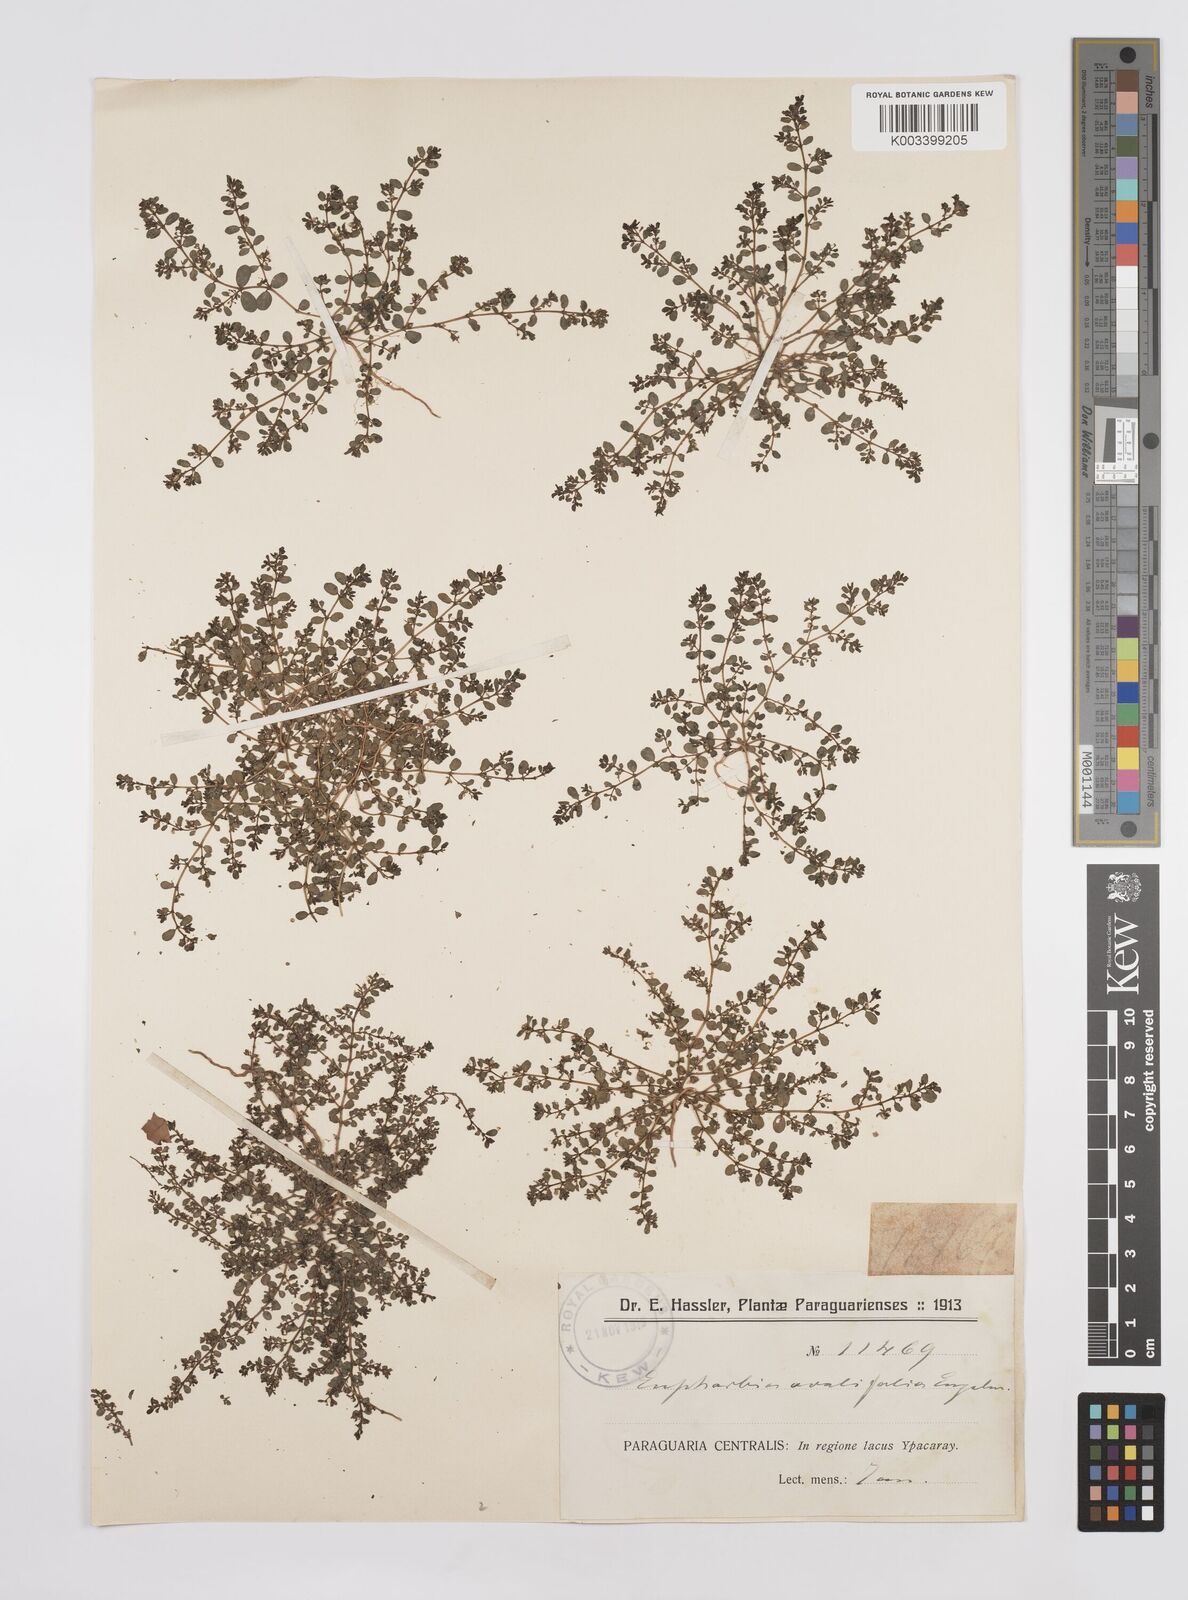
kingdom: Plantae
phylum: Tracheophyta
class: Magnoliopsida
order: Malpighiales
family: Euphorbiaceae
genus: Euphorbia
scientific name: Euphorbia indica
